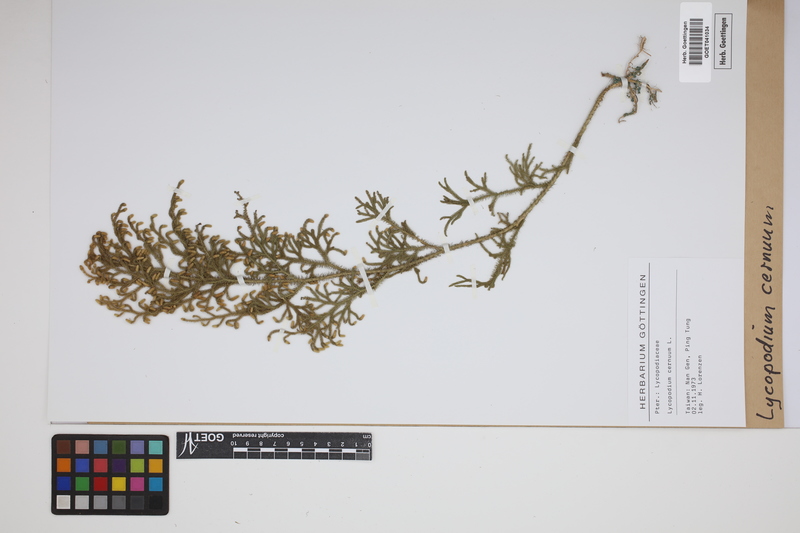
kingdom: Plantae
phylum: Tracheophyta
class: Lycopodiopsida
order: Lycopodiales
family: Lycopodiaceae
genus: Palhinhaea
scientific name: Palhinhaea cernua
